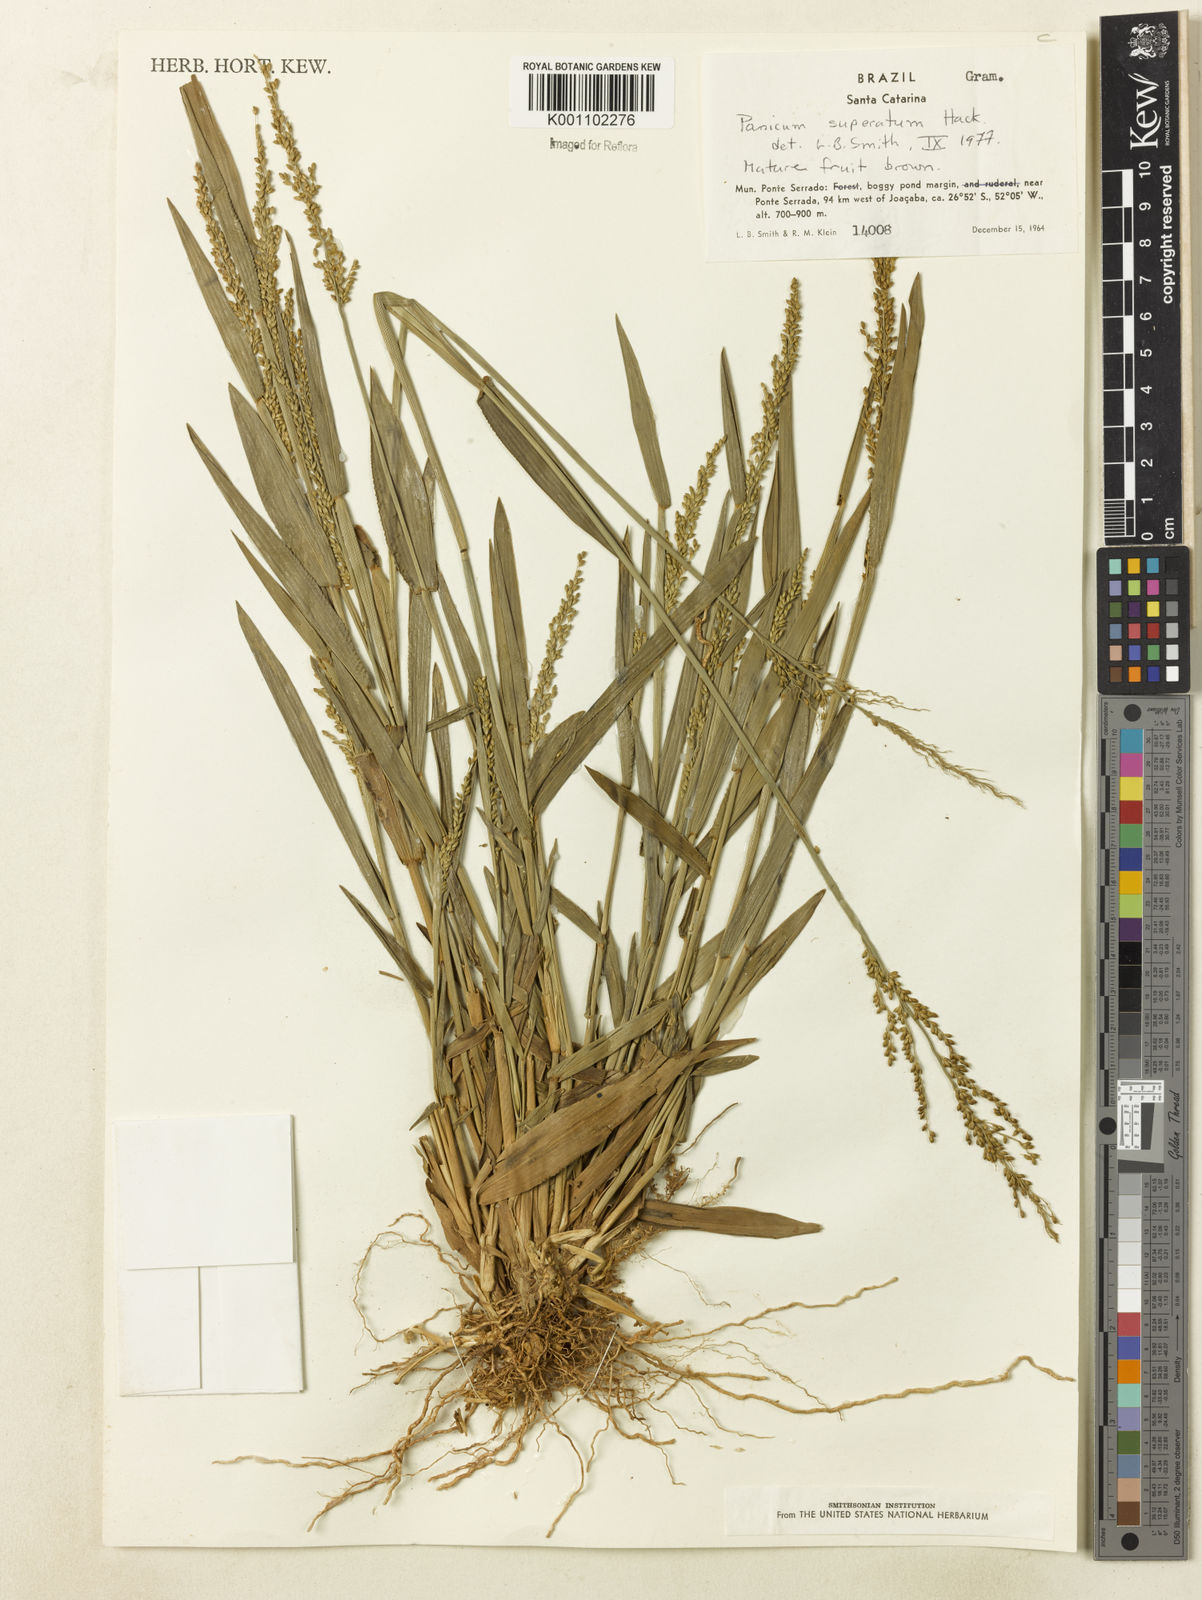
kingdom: Plantae
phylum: Tracheophyta
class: Liliopsida
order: Poales
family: Poaceae
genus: Dichanthelium
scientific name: Dichanthelium superatum
